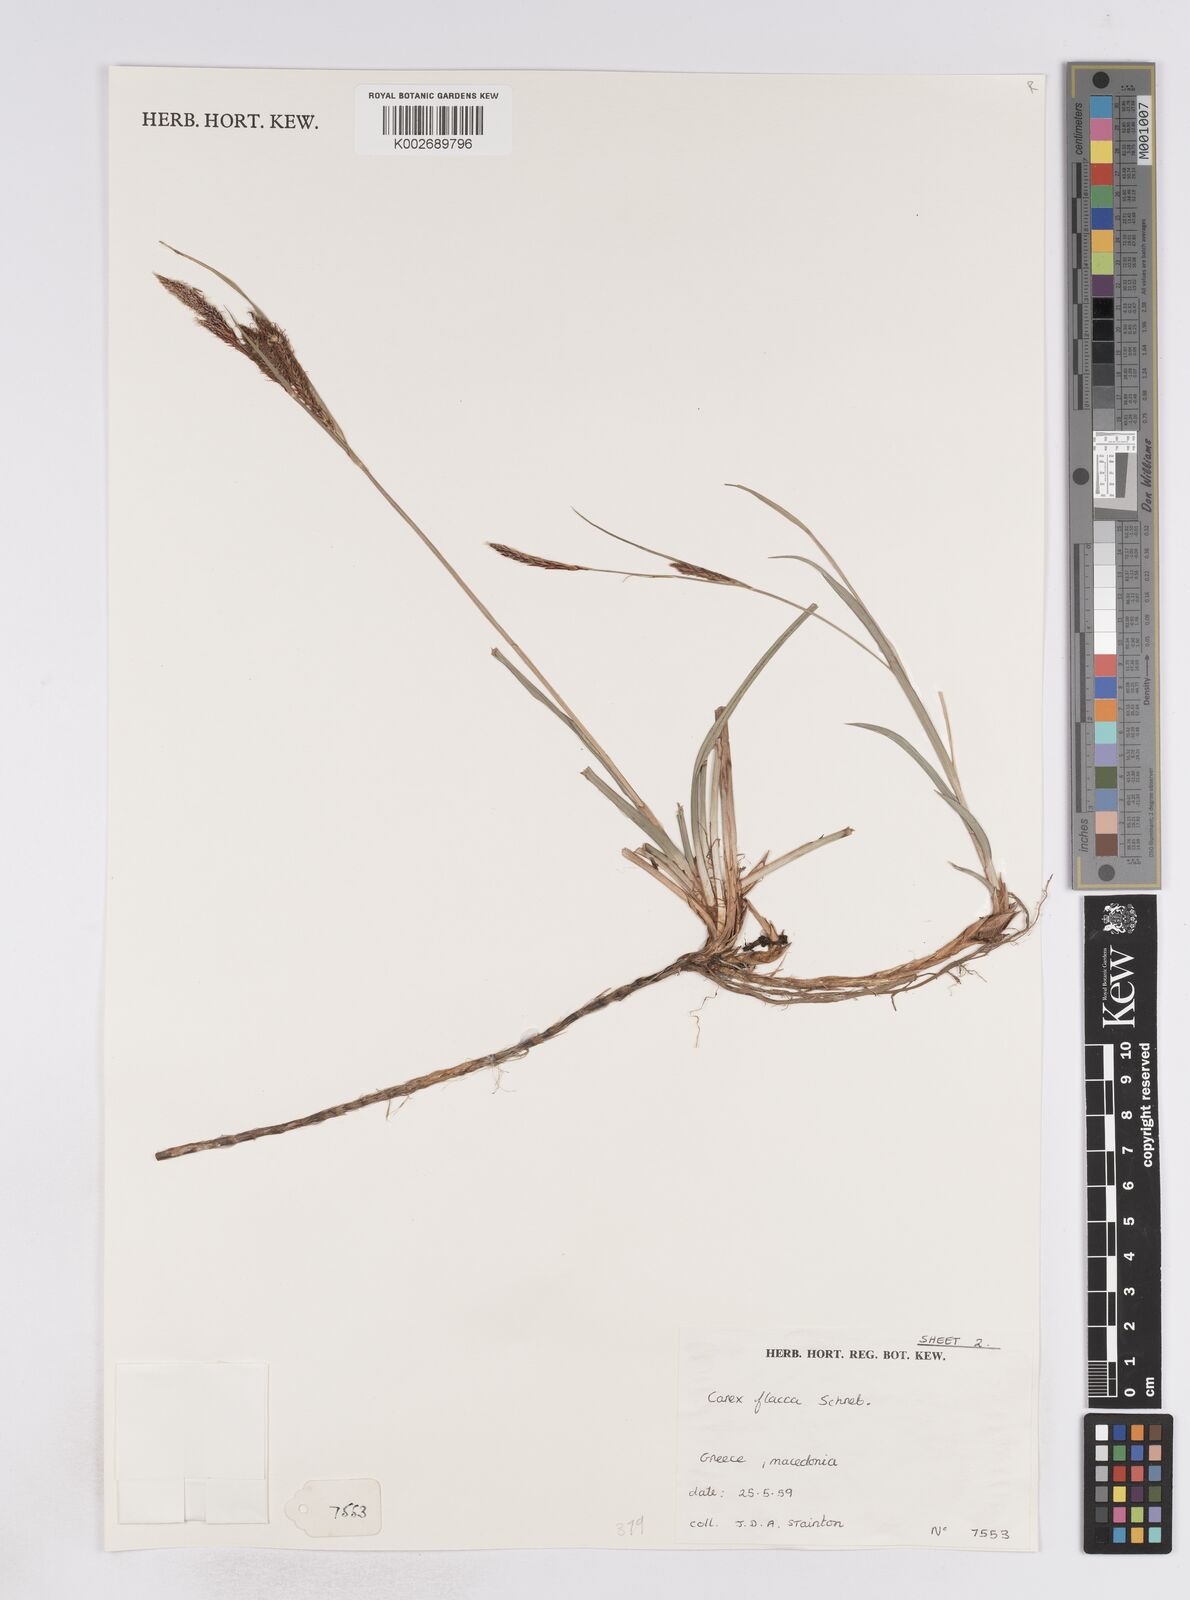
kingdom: Plantae
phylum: Tracheophyta
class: Liliopsida
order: Poales
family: Cyperaceae
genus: Carex
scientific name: Carex flacca
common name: Glaucous sedge
